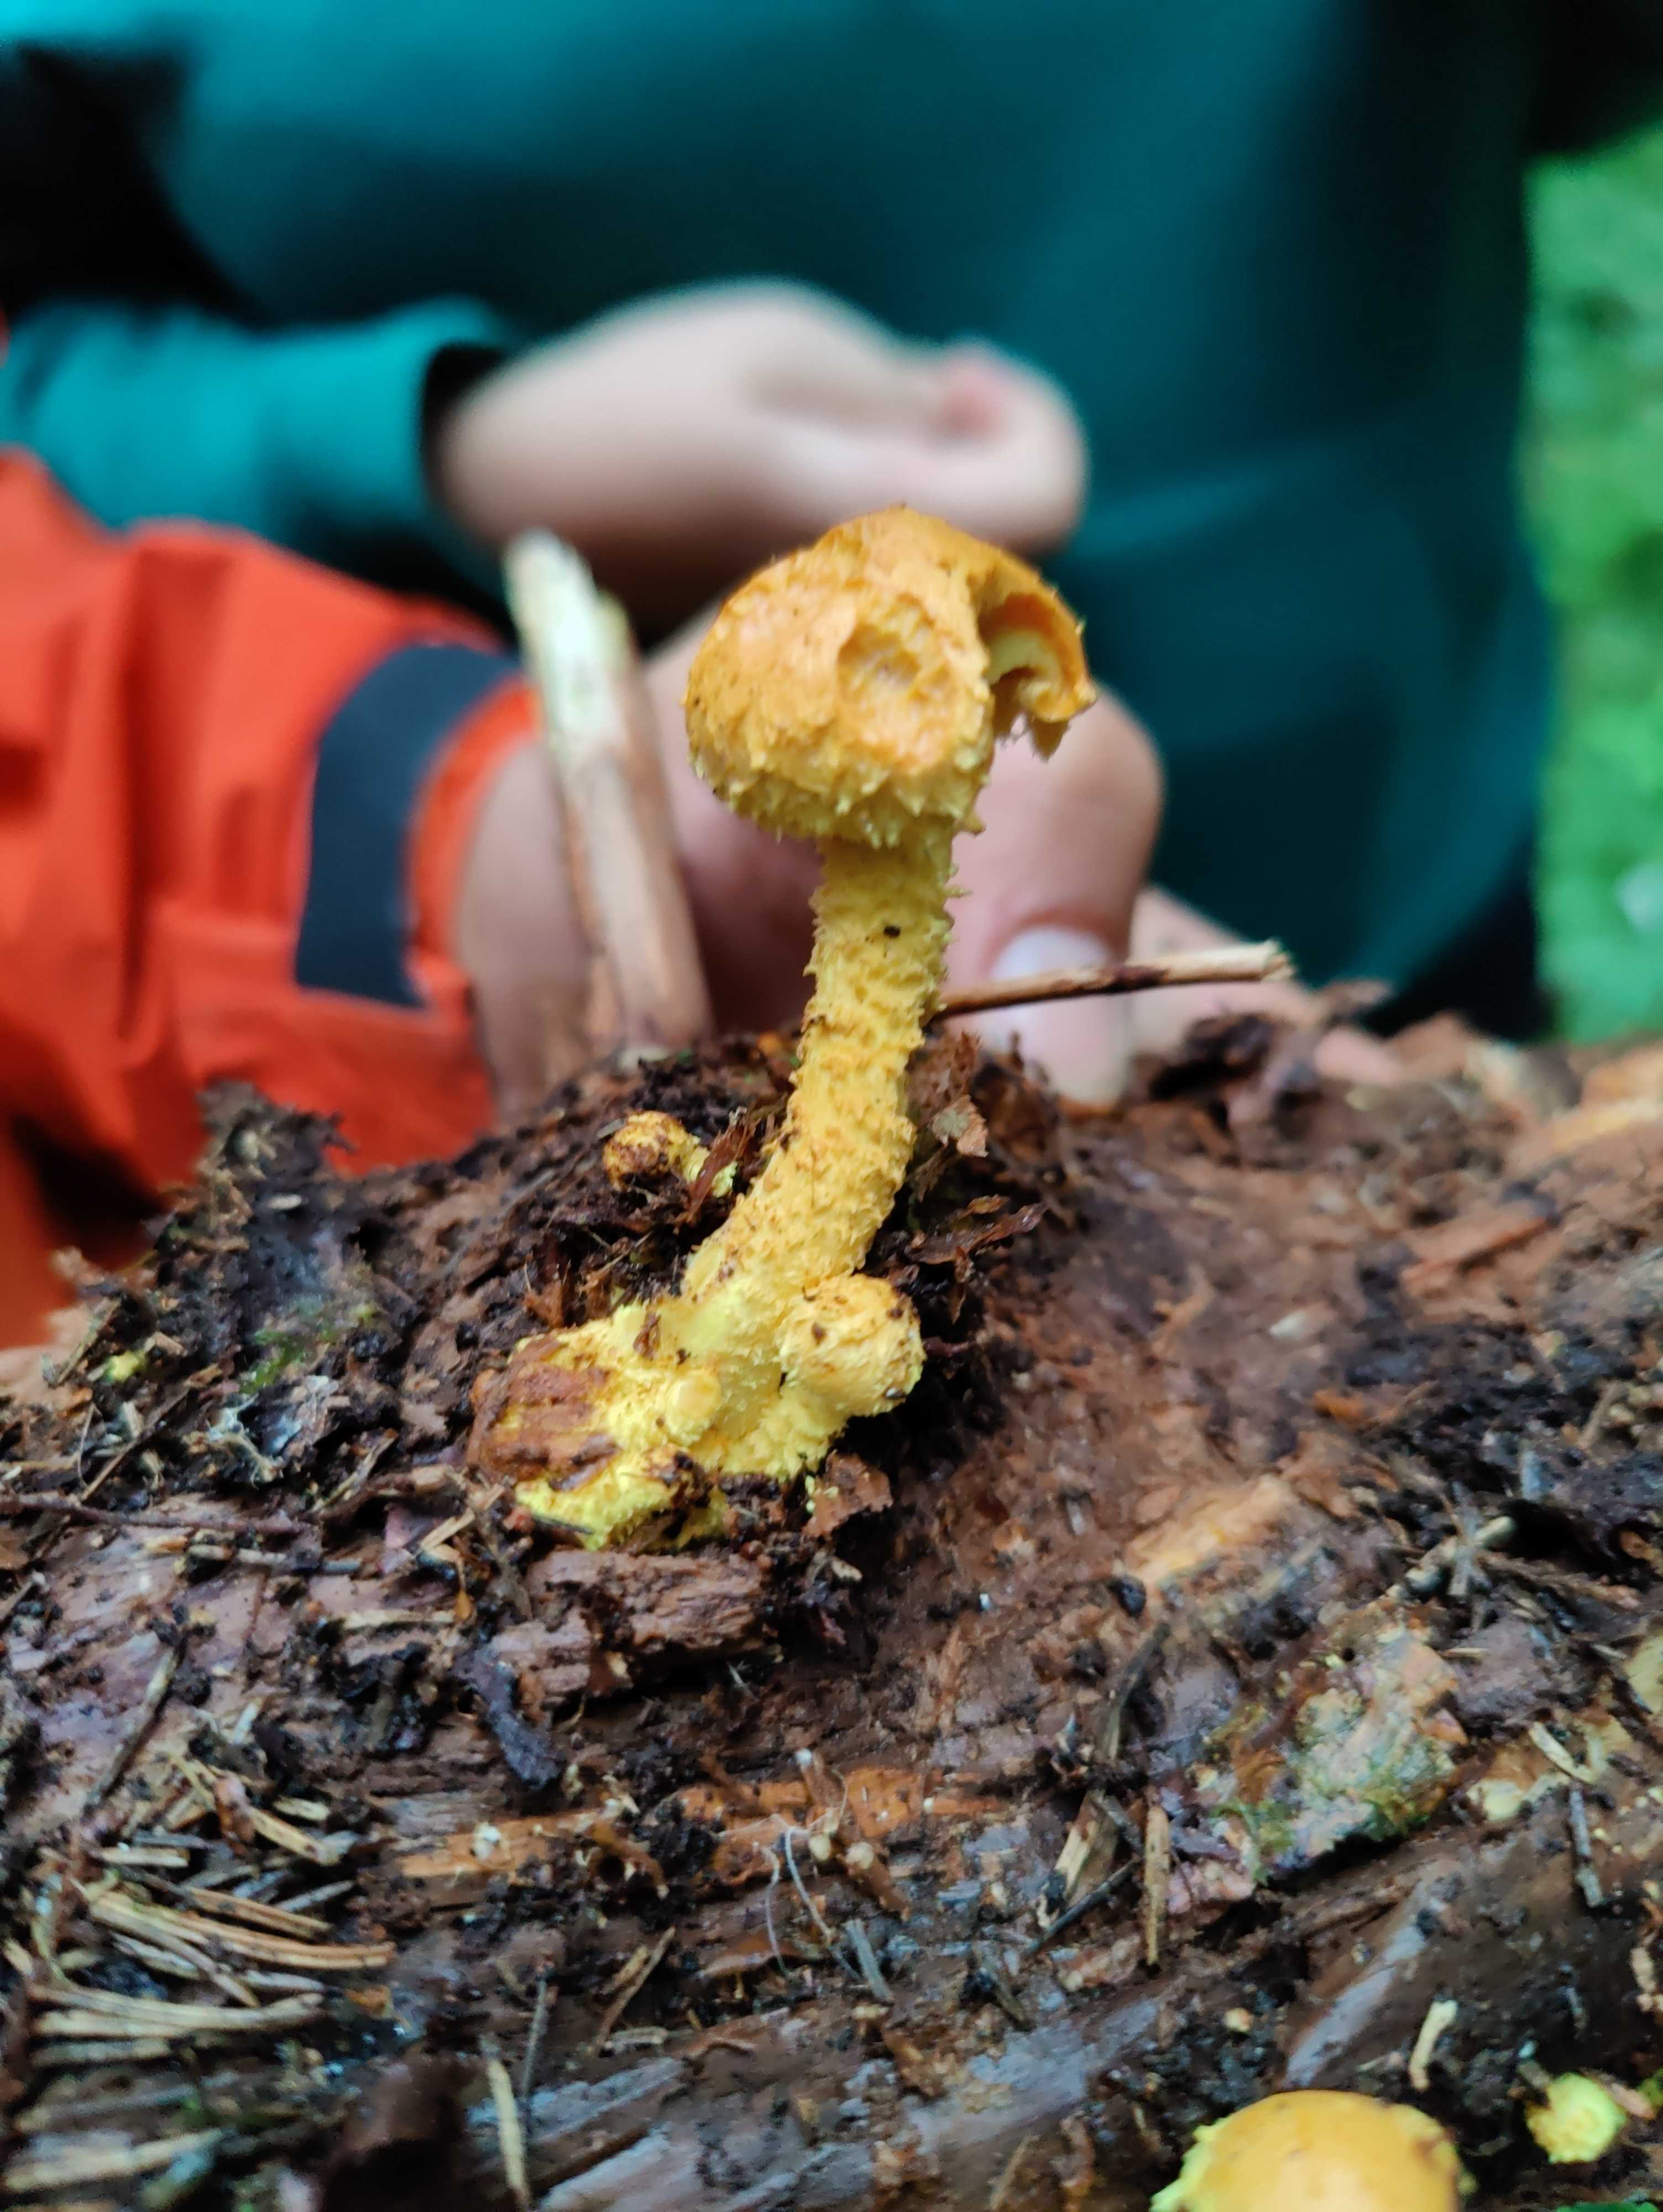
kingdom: Fungi
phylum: Basidiomycota
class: Agaricomycetes
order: Agaricales
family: Strophariaceae
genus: Pholiota
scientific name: Pholiota flammans
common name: flamme-skælhat
